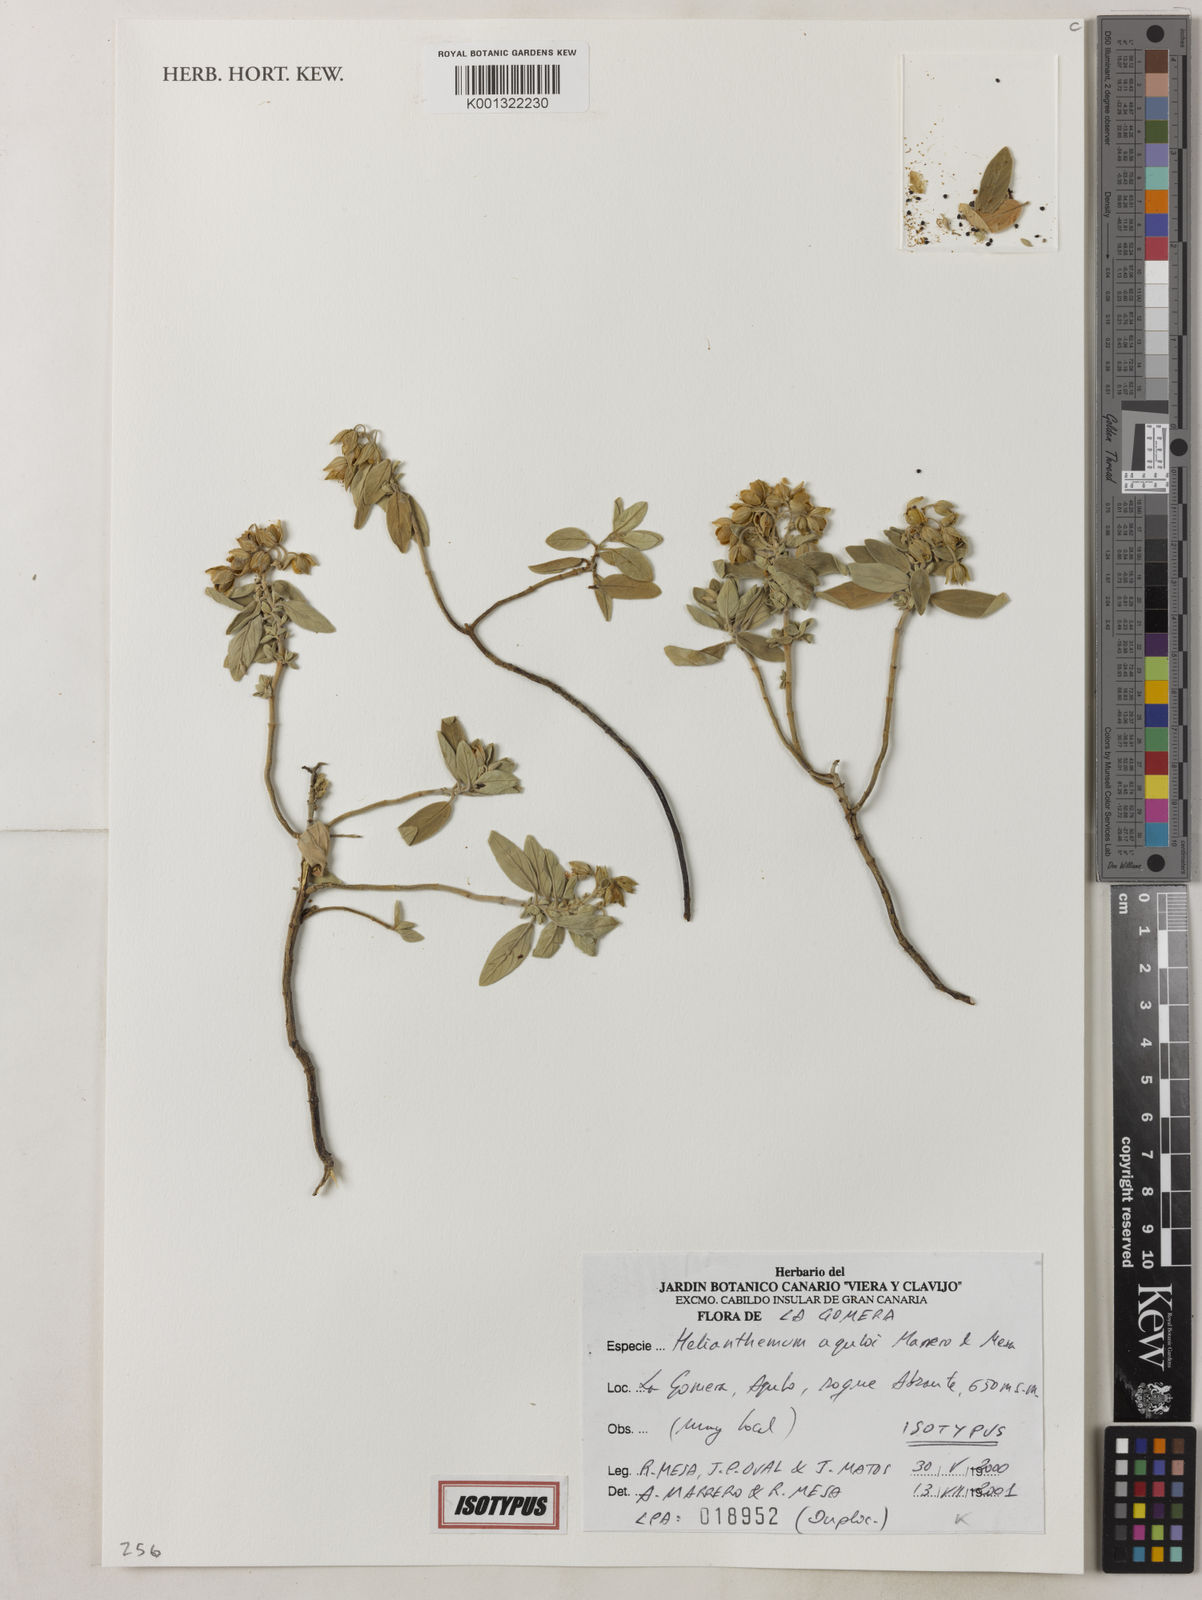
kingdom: Plantae
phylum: Tracheophyta
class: Magnoliopsida
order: Malvales
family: Cistaceae
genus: Helianthemum
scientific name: Helianthemum aguloi
